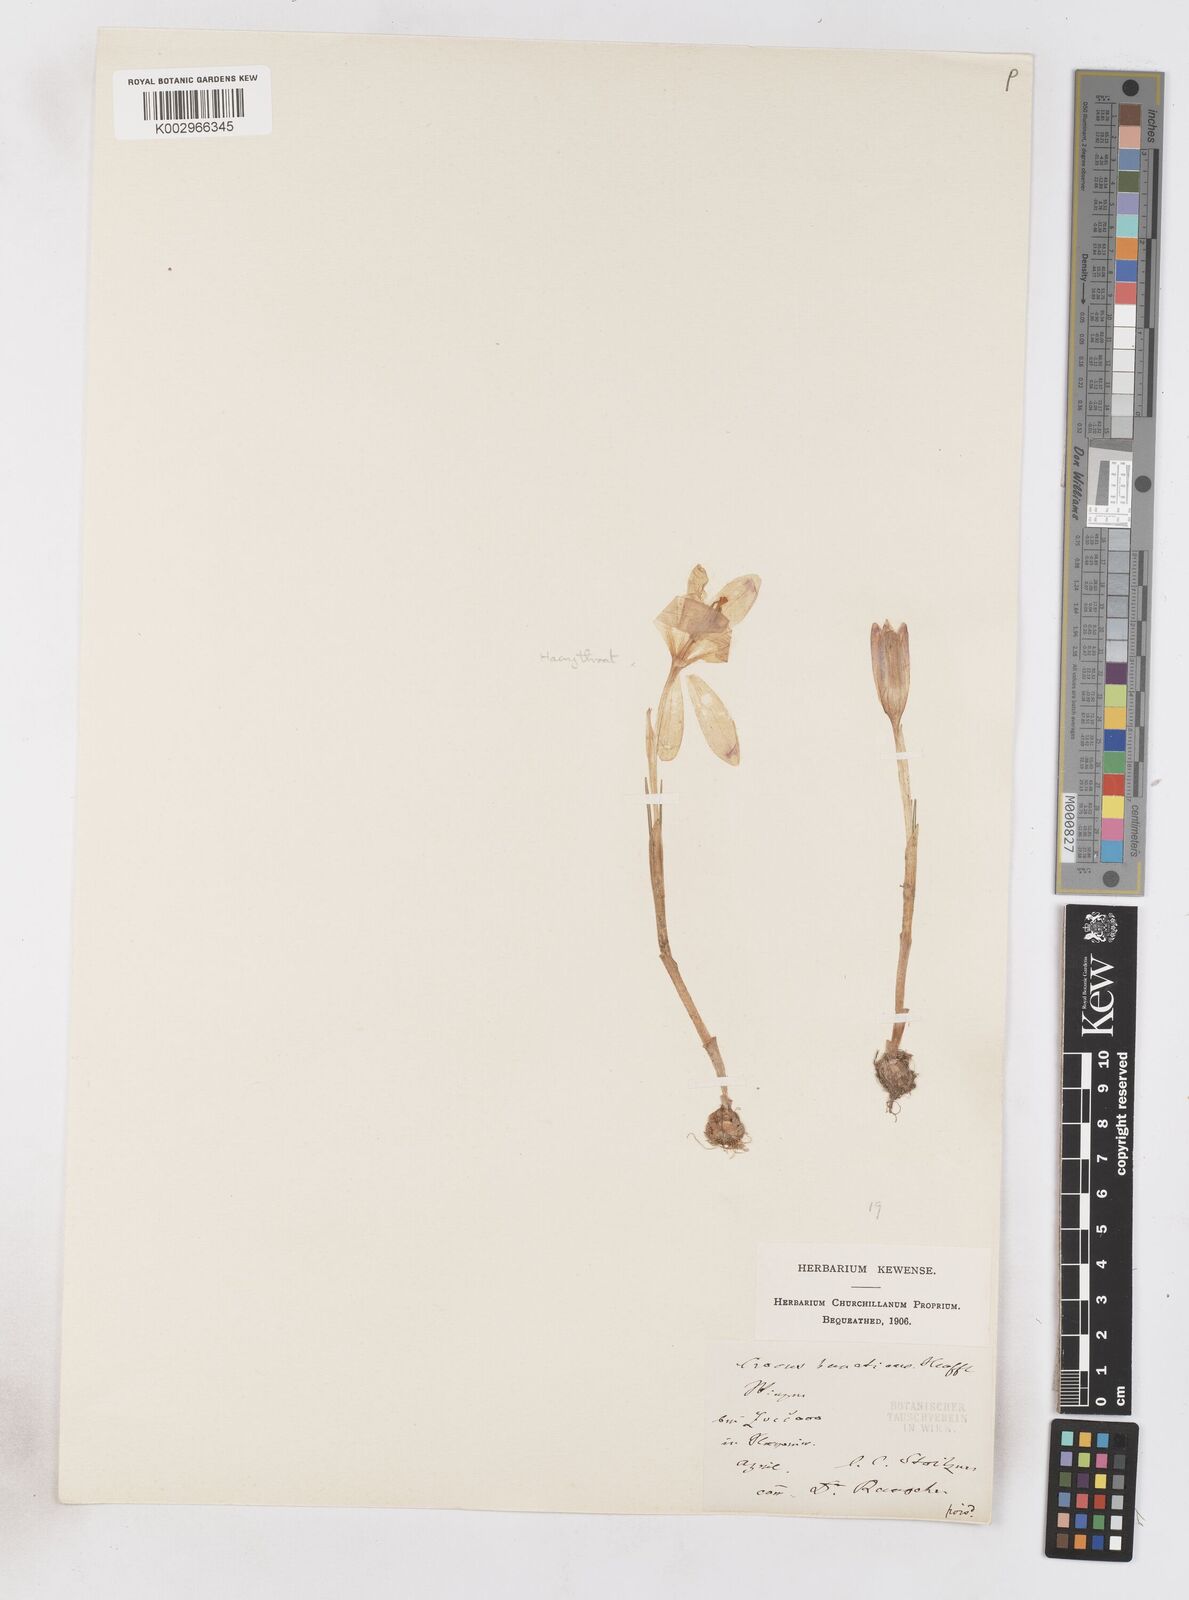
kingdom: Plantae
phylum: Tracheophyta
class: Liliopsida
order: Asparagales
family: Iridaceae
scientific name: Iridaceae
